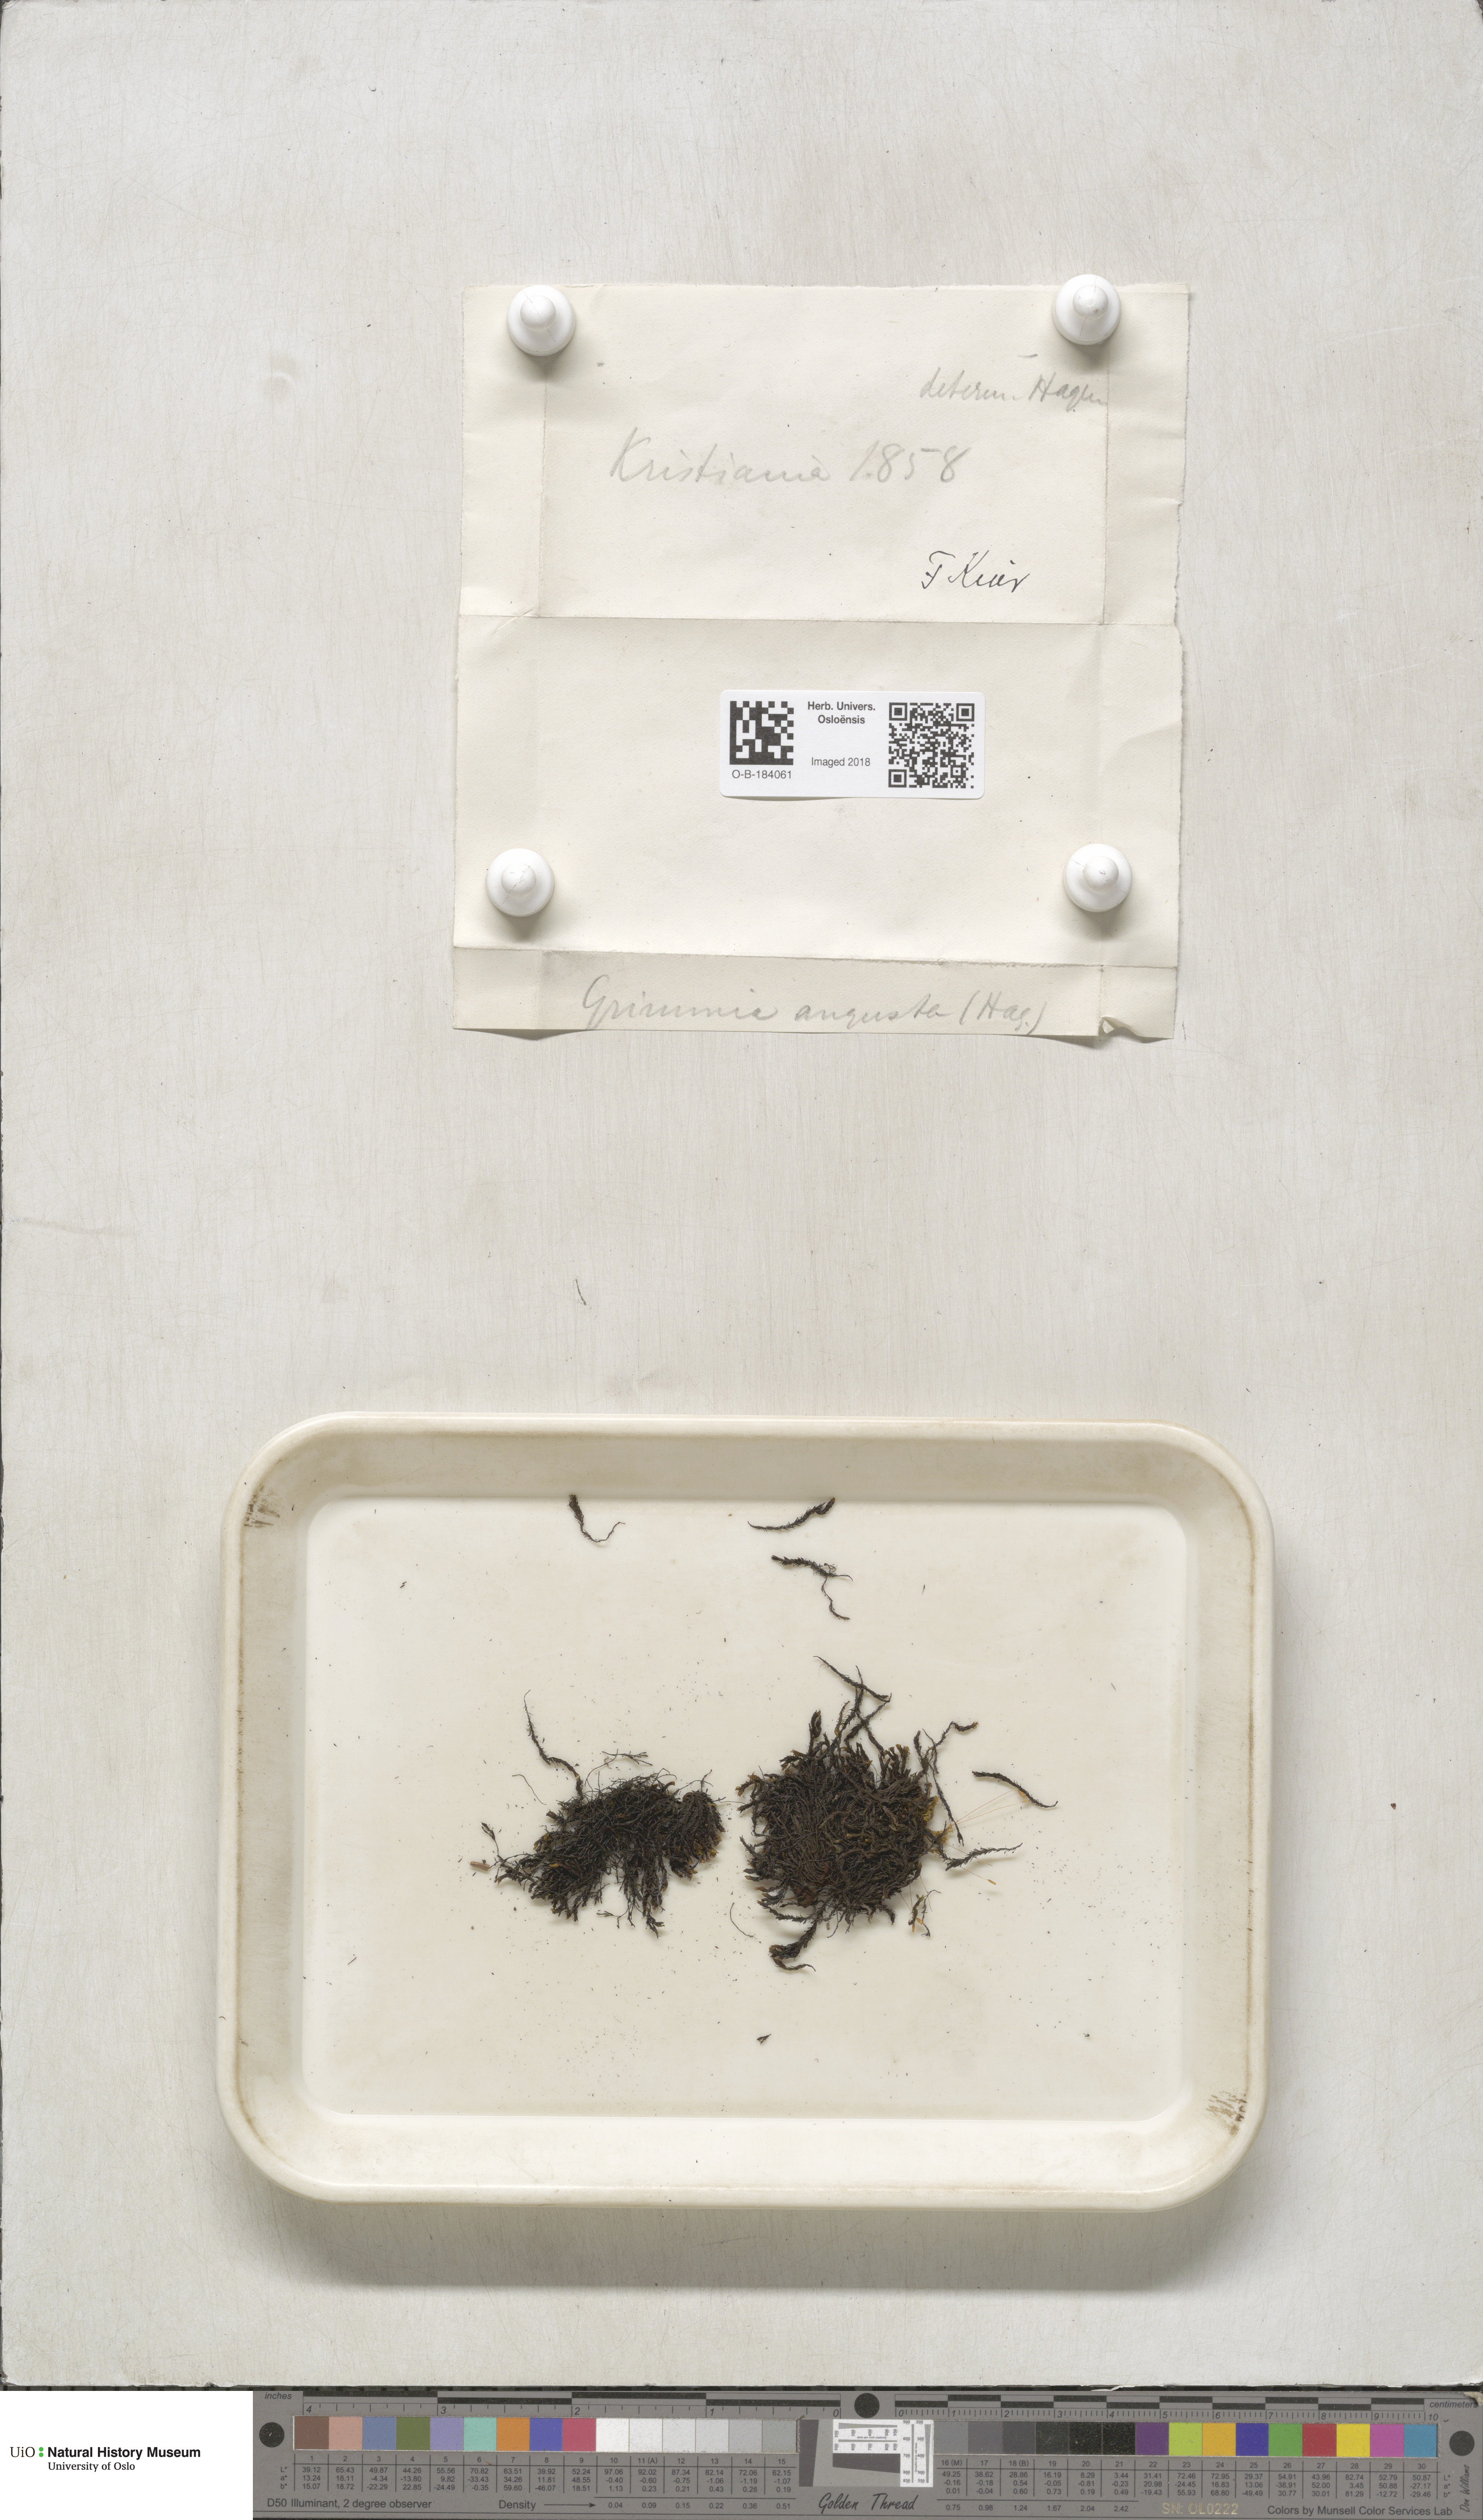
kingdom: Plantae
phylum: Bryophyta
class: Bryopsida
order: Grimmiales
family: Grimmiaceae
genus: Schistidium
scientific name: Schistidium agassizii
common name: Agassiz's bloom moss
